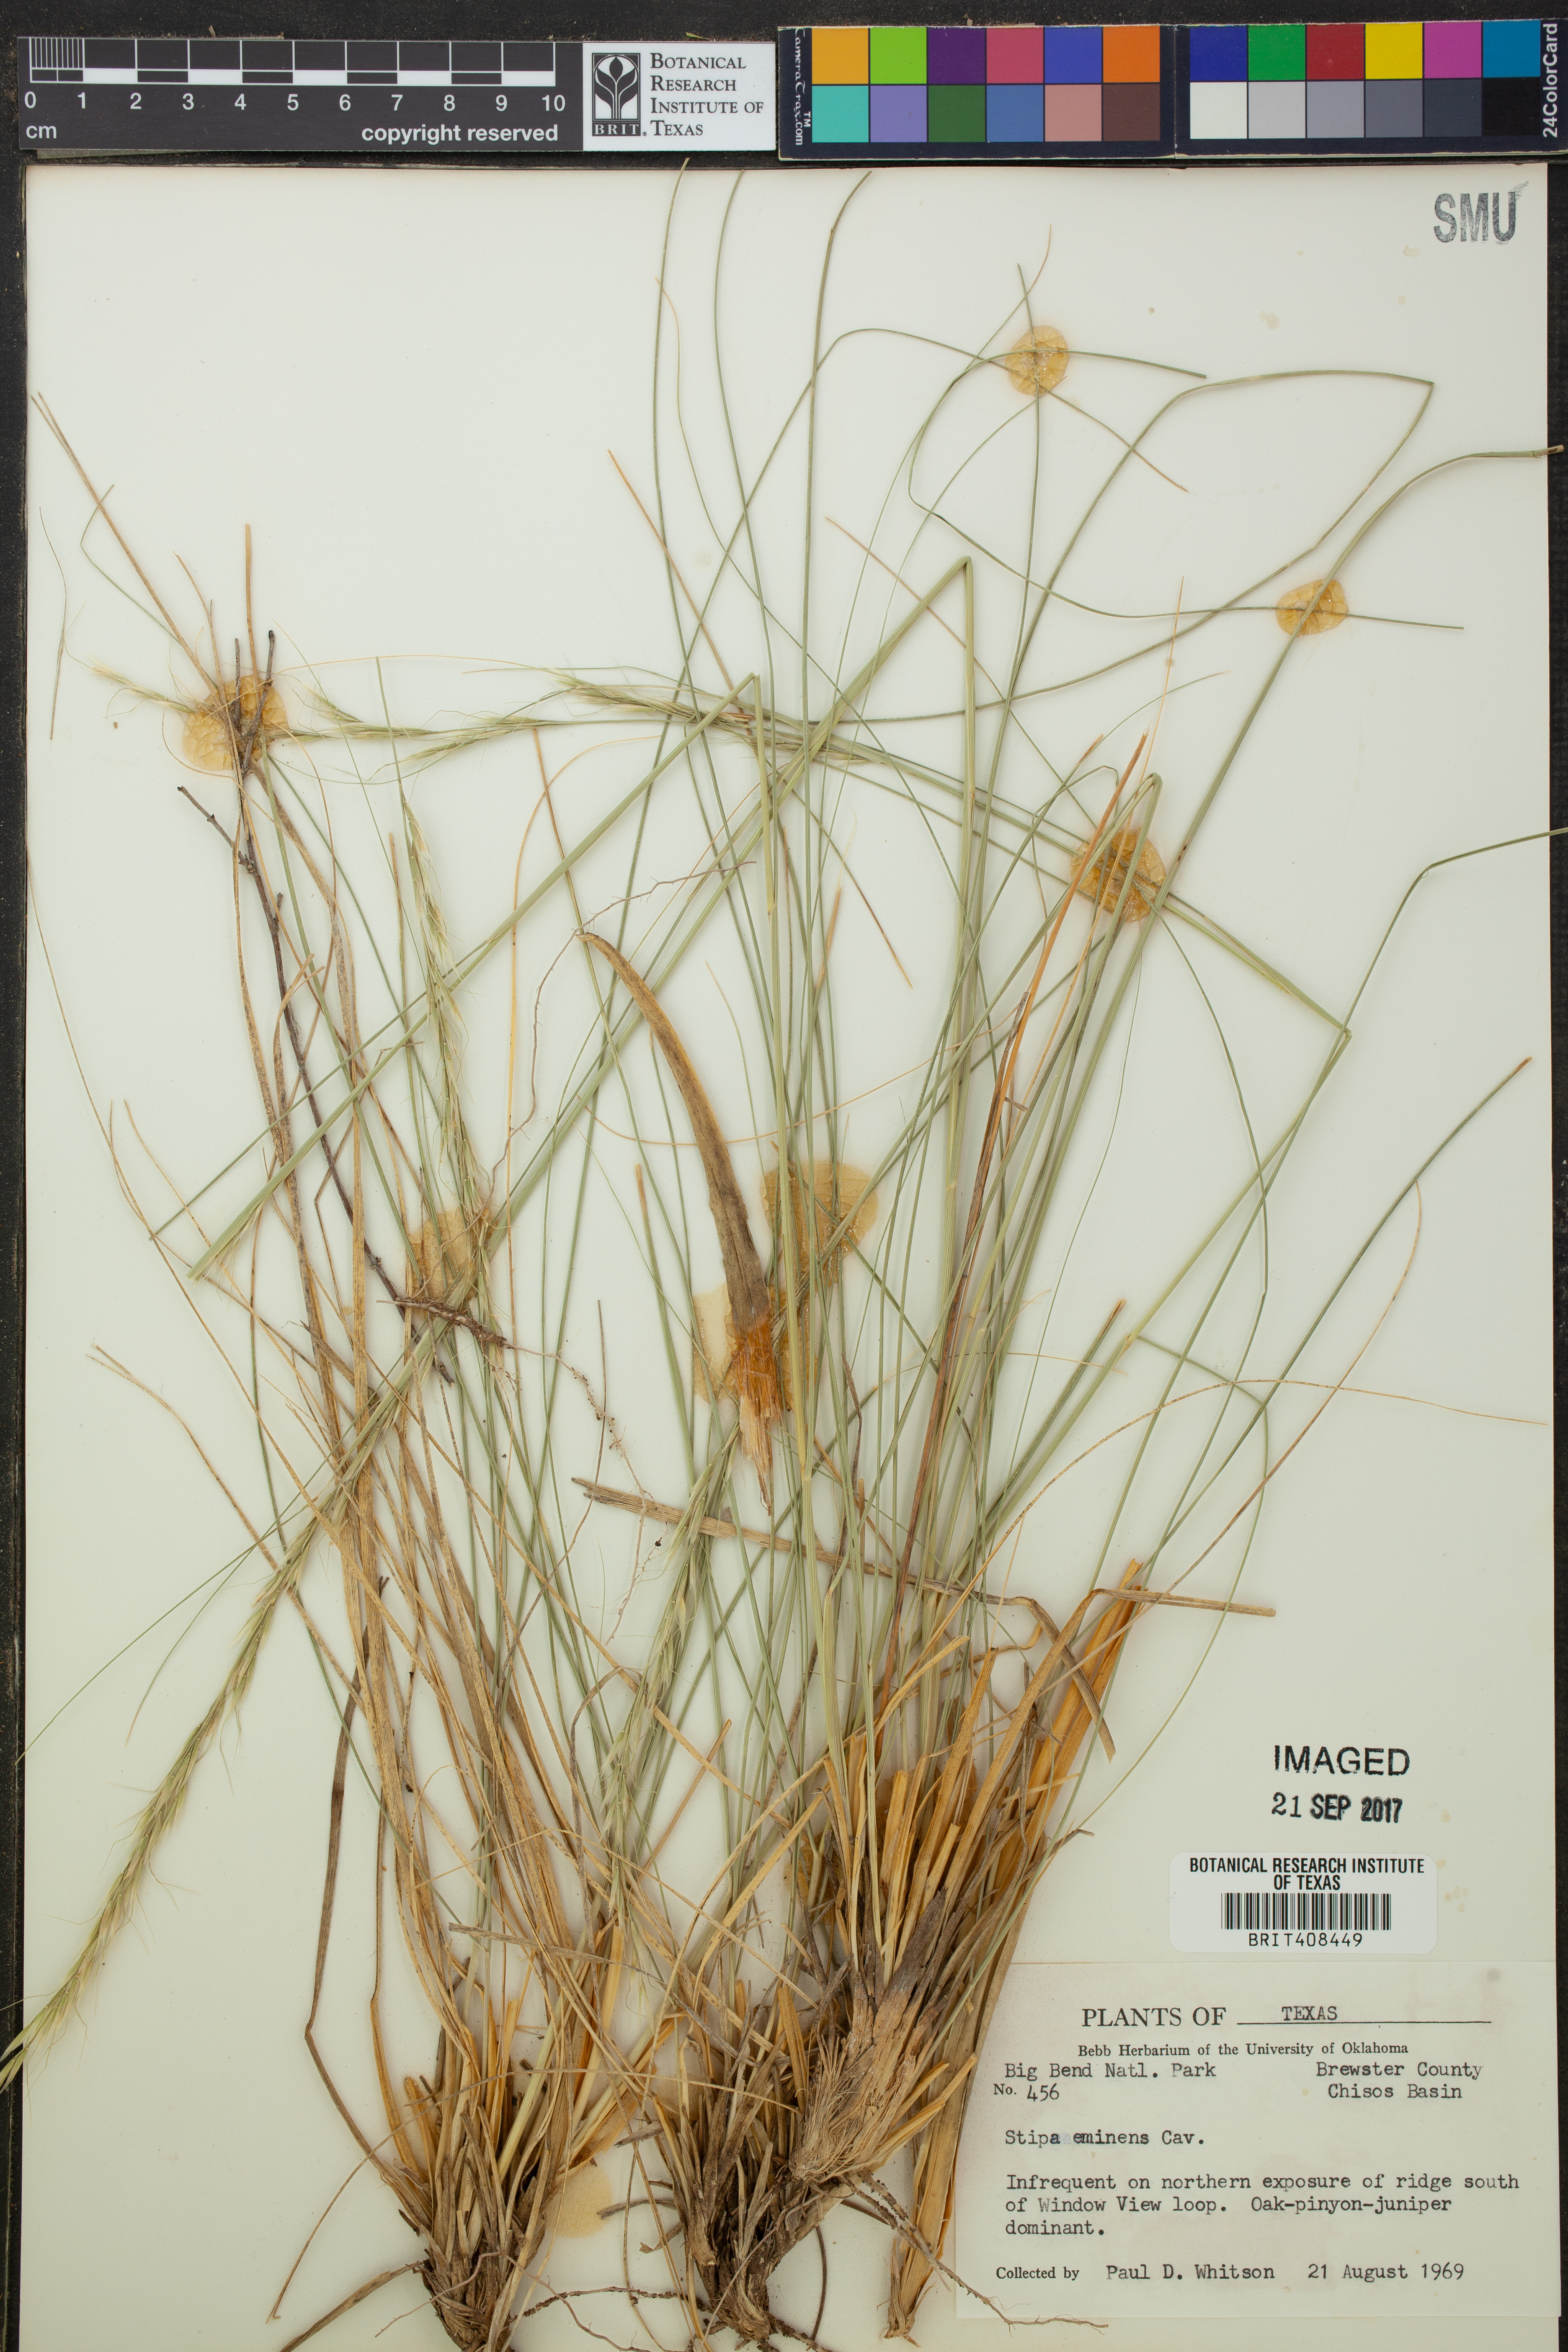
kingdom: Plantae
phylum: Tracheophyta
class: Liliopsida
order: Poales
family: Poaceae
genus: Pseudoeriocoma
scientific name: Pseudoeriocoma eminens
